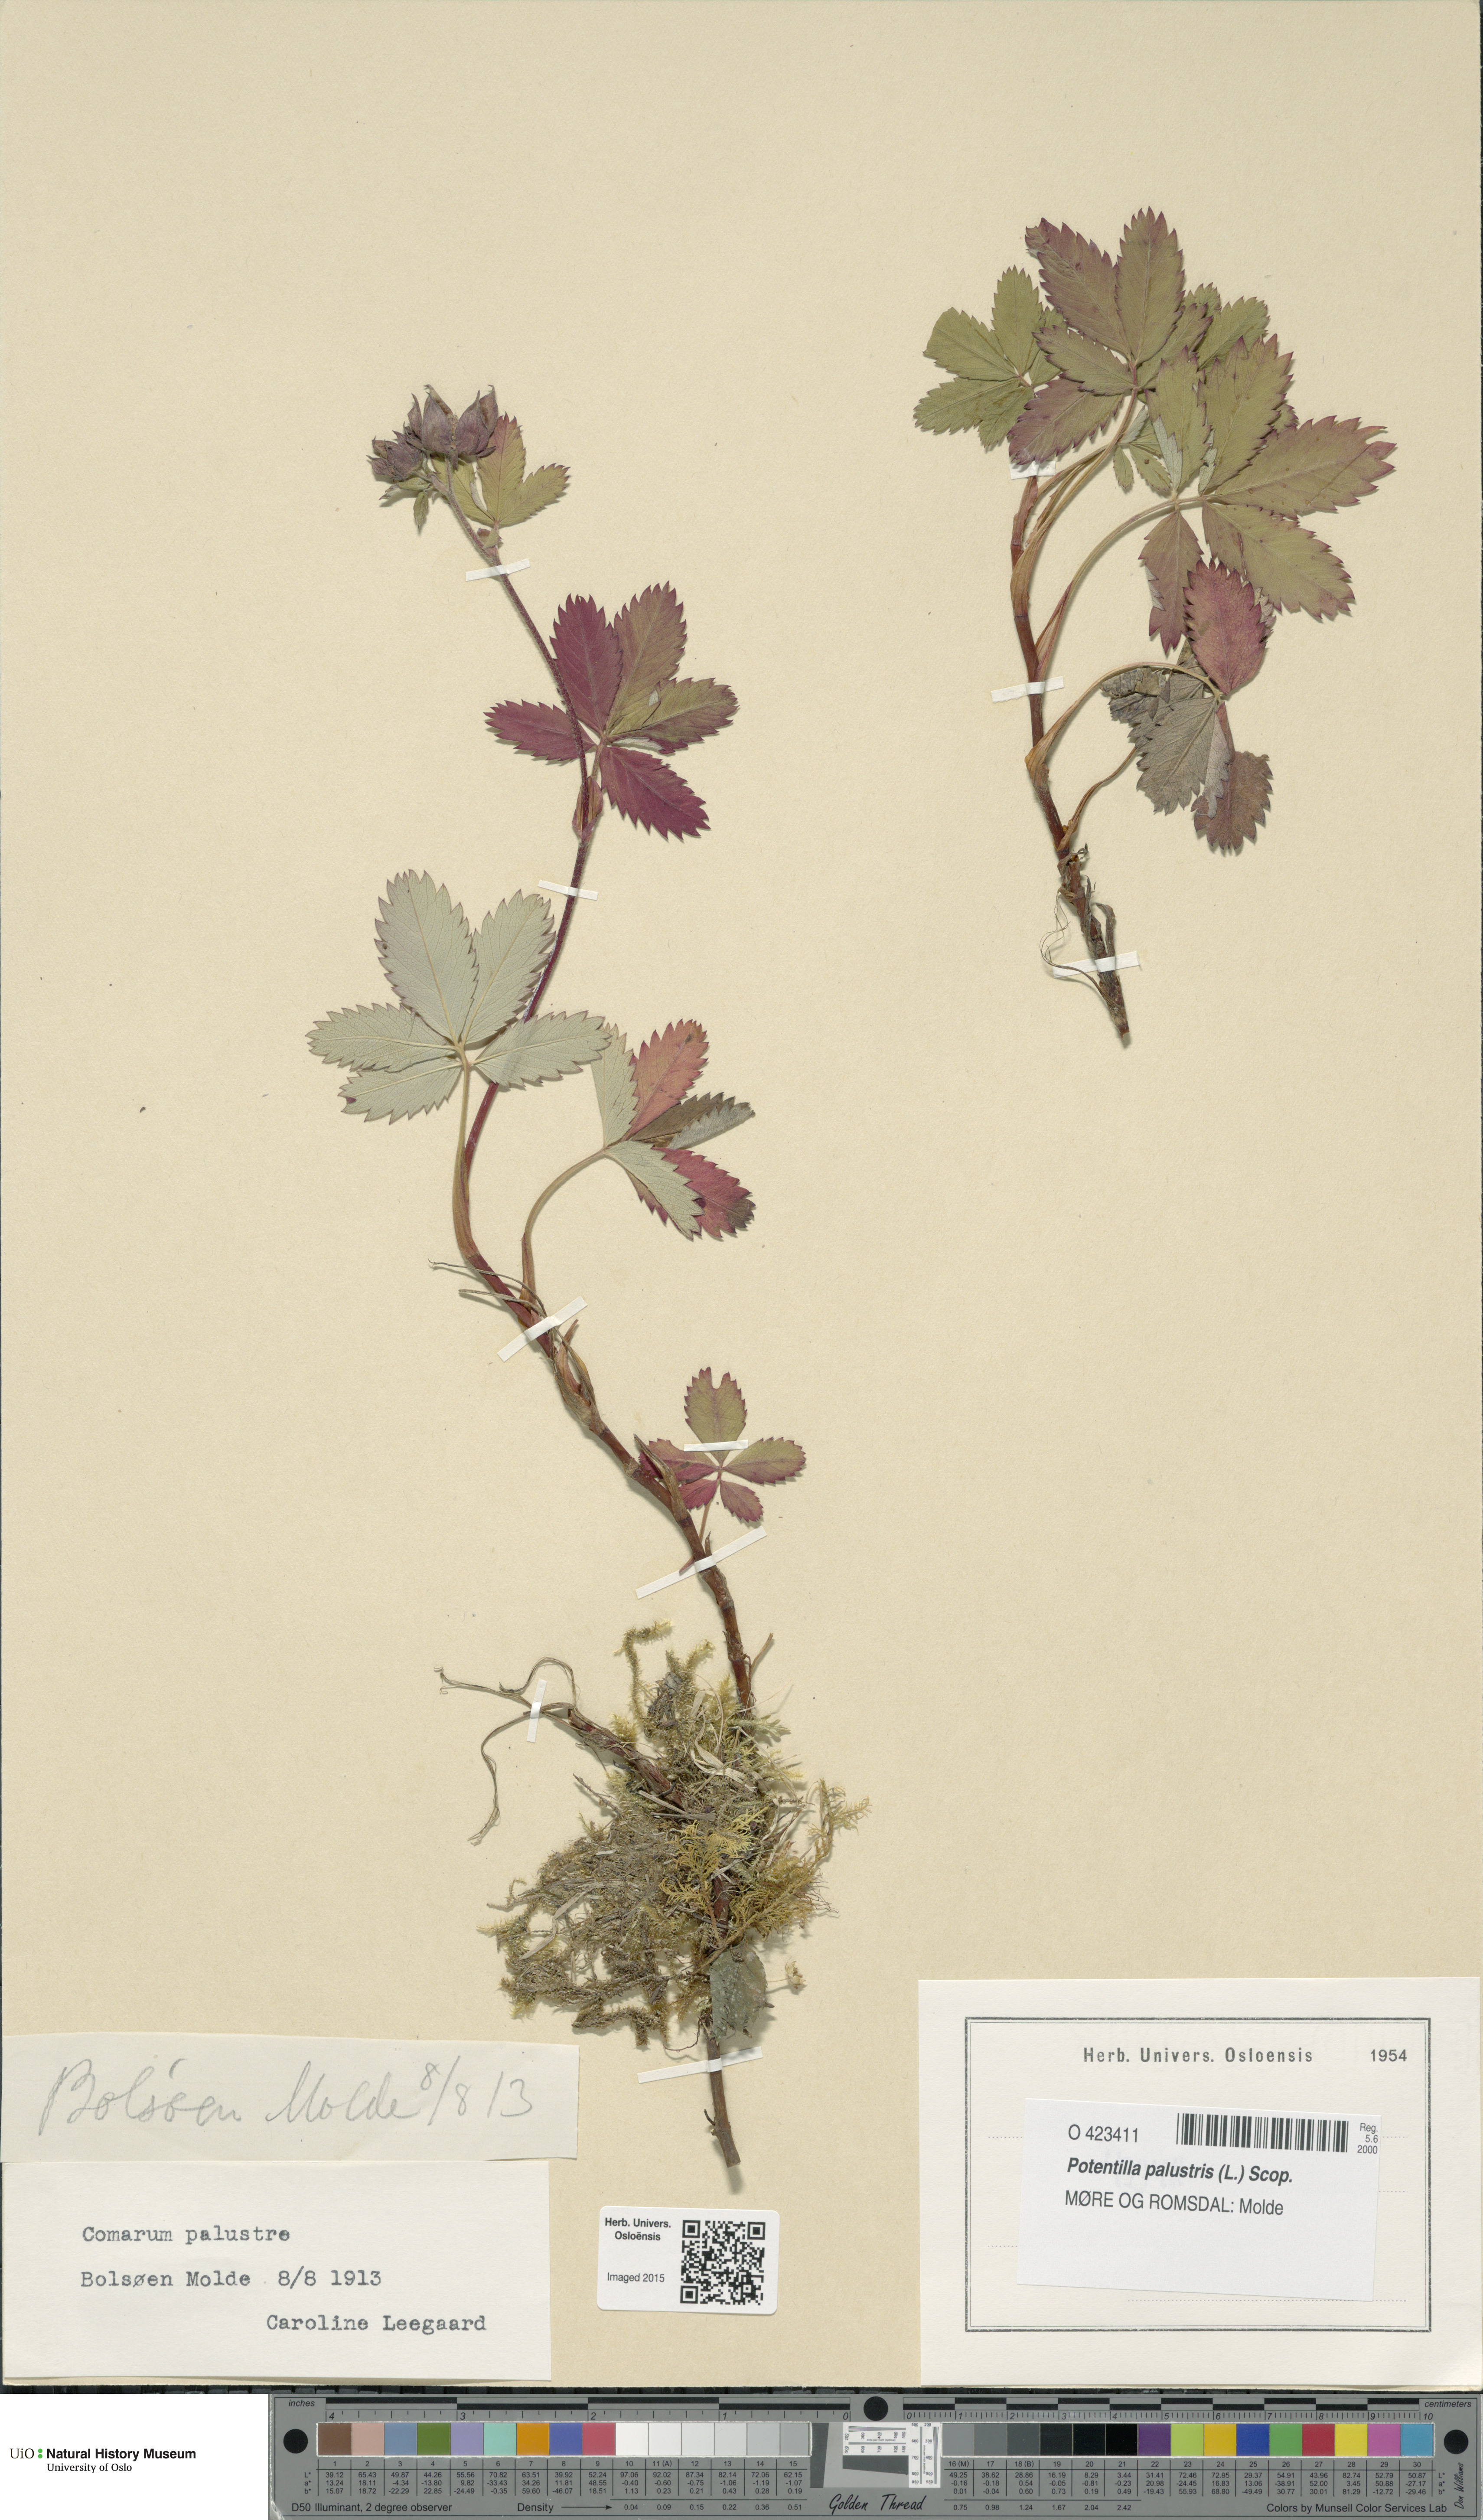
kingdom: Plantae
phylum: Tracheophyta
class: Magnoliopsida
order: Rosales
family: Rosaceae
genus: Comarum
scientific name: Comarum palustre
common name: Marsh cinquefoil
